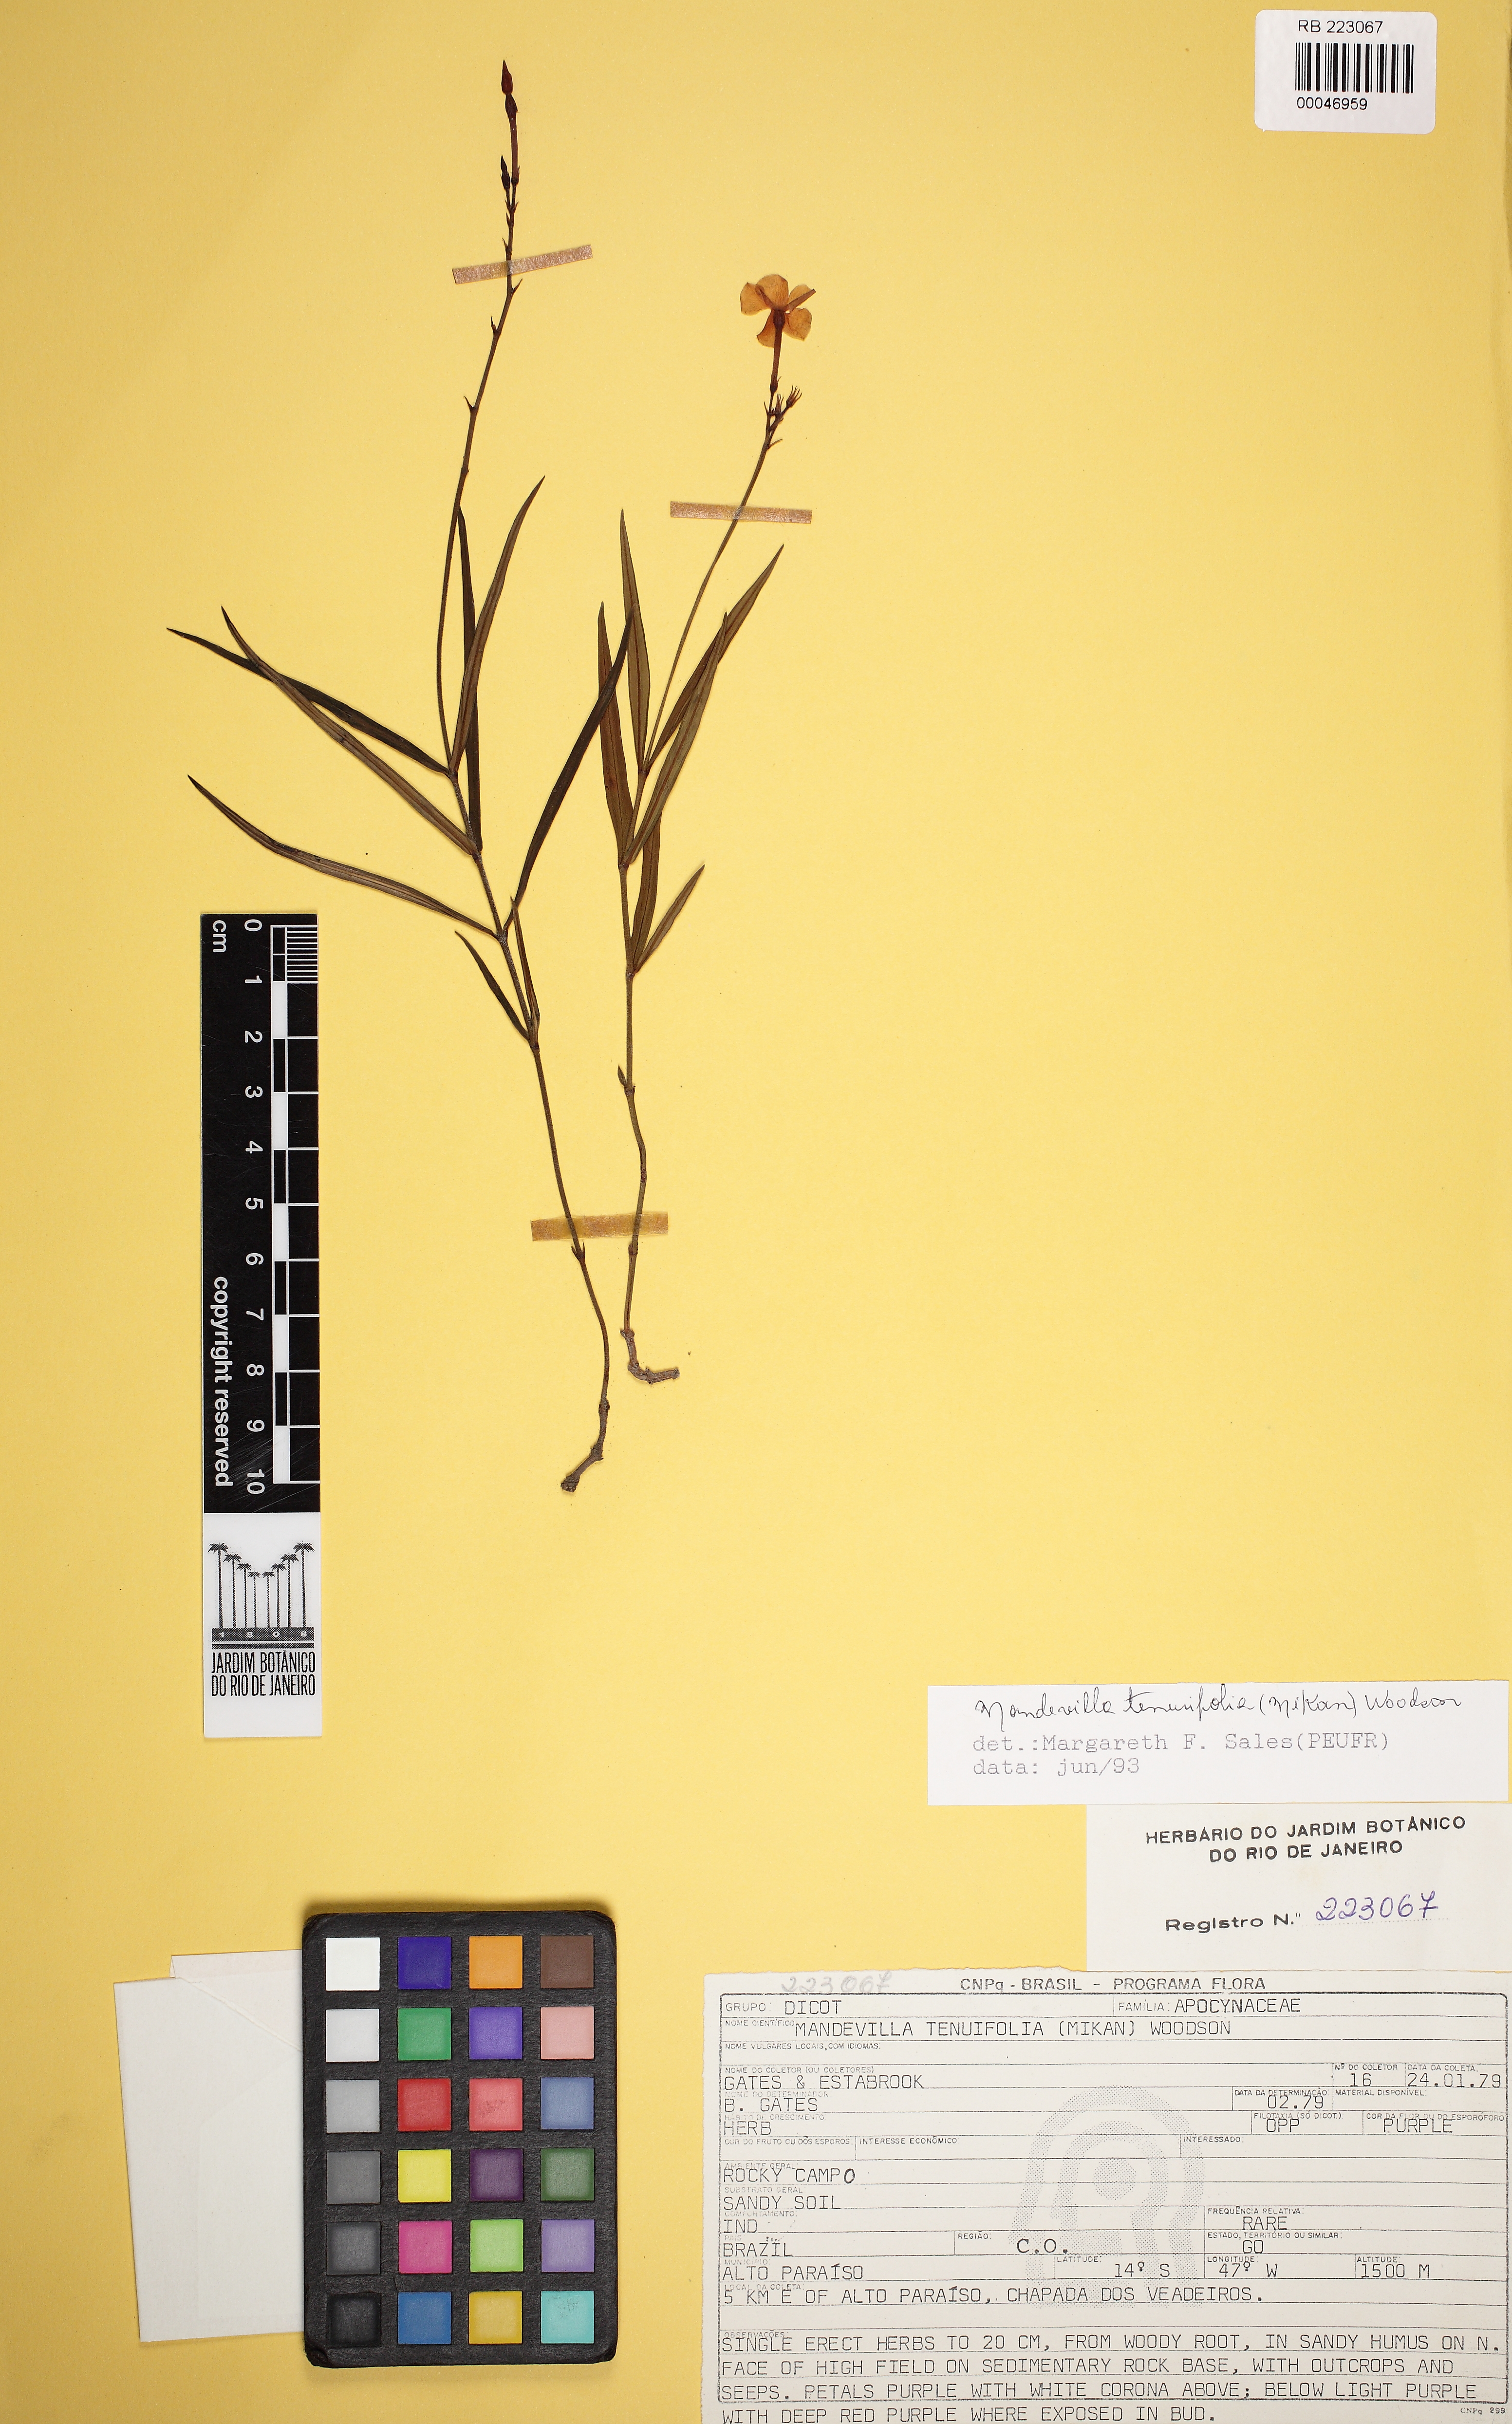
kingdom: Plantae
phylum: Tracheophyta
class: Magnoliopsida
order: Gentianales
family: Apocynaceae
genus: Mandevilla
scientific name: Mandevilla tenuifolia
